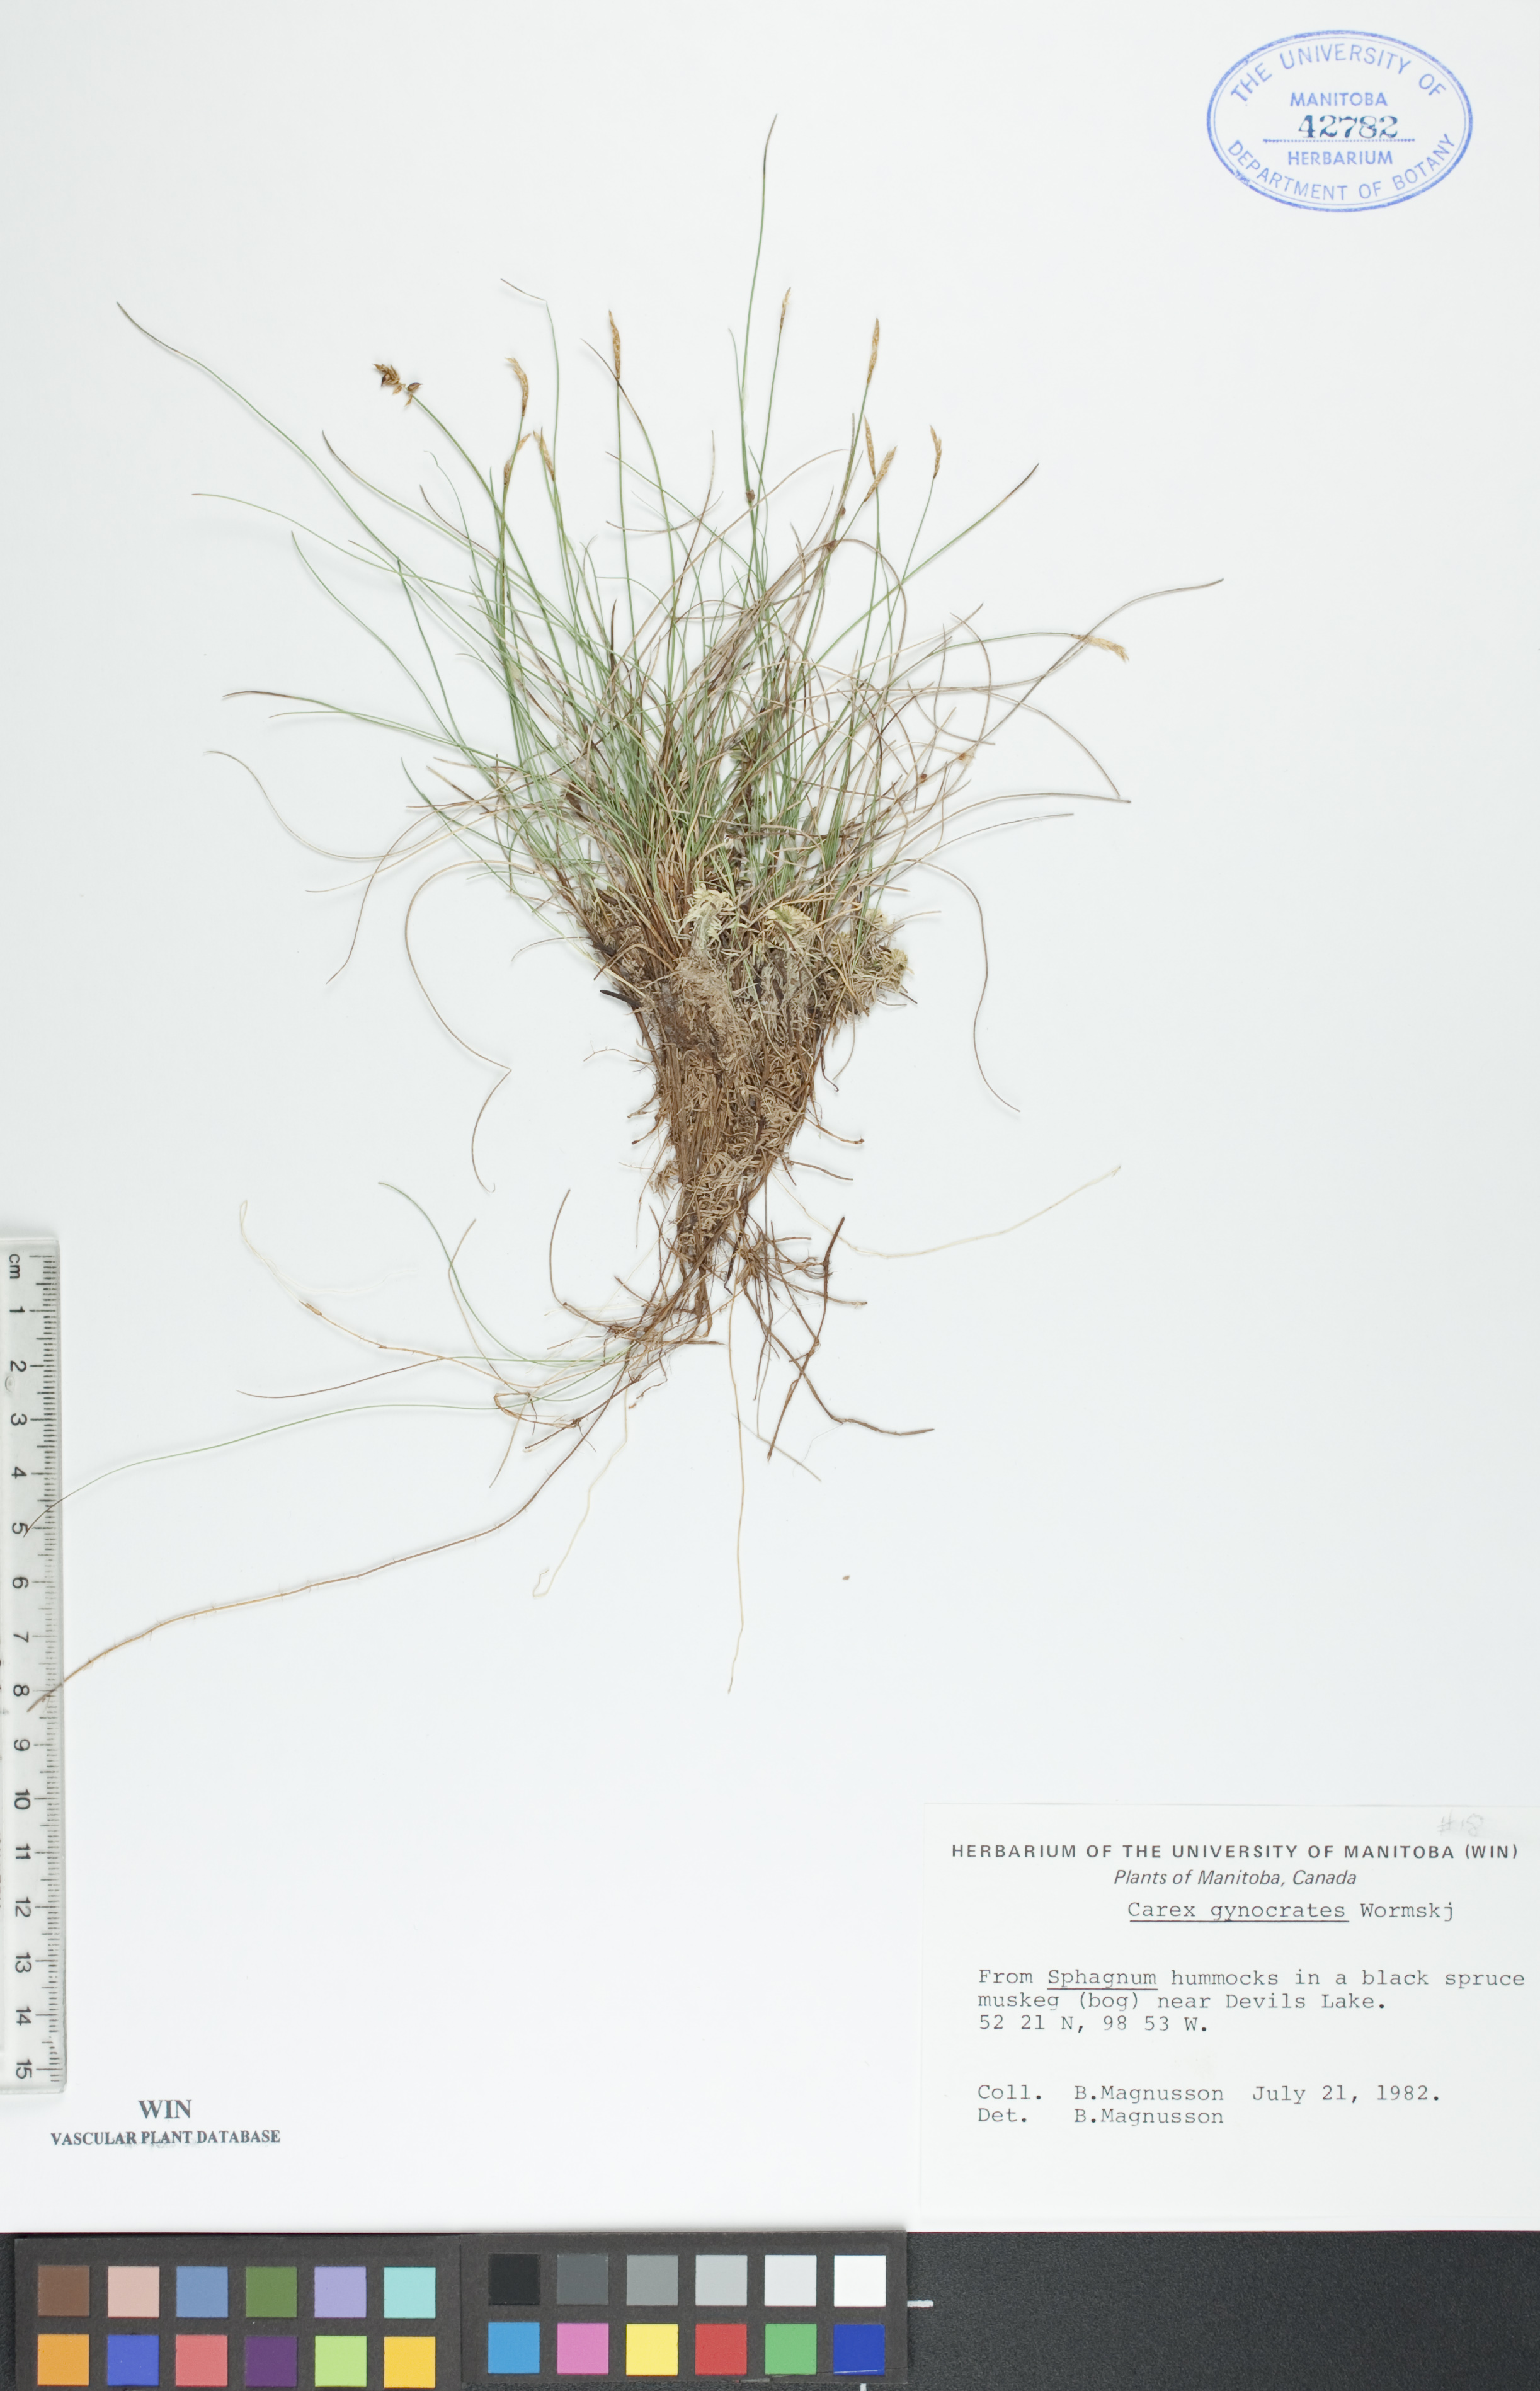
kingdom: Plantae
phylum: Tracheophyta
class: Liliopsida
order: Poales
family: Cyperaceae
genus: Carex
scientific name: Carex nardina
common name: Nard sedge
